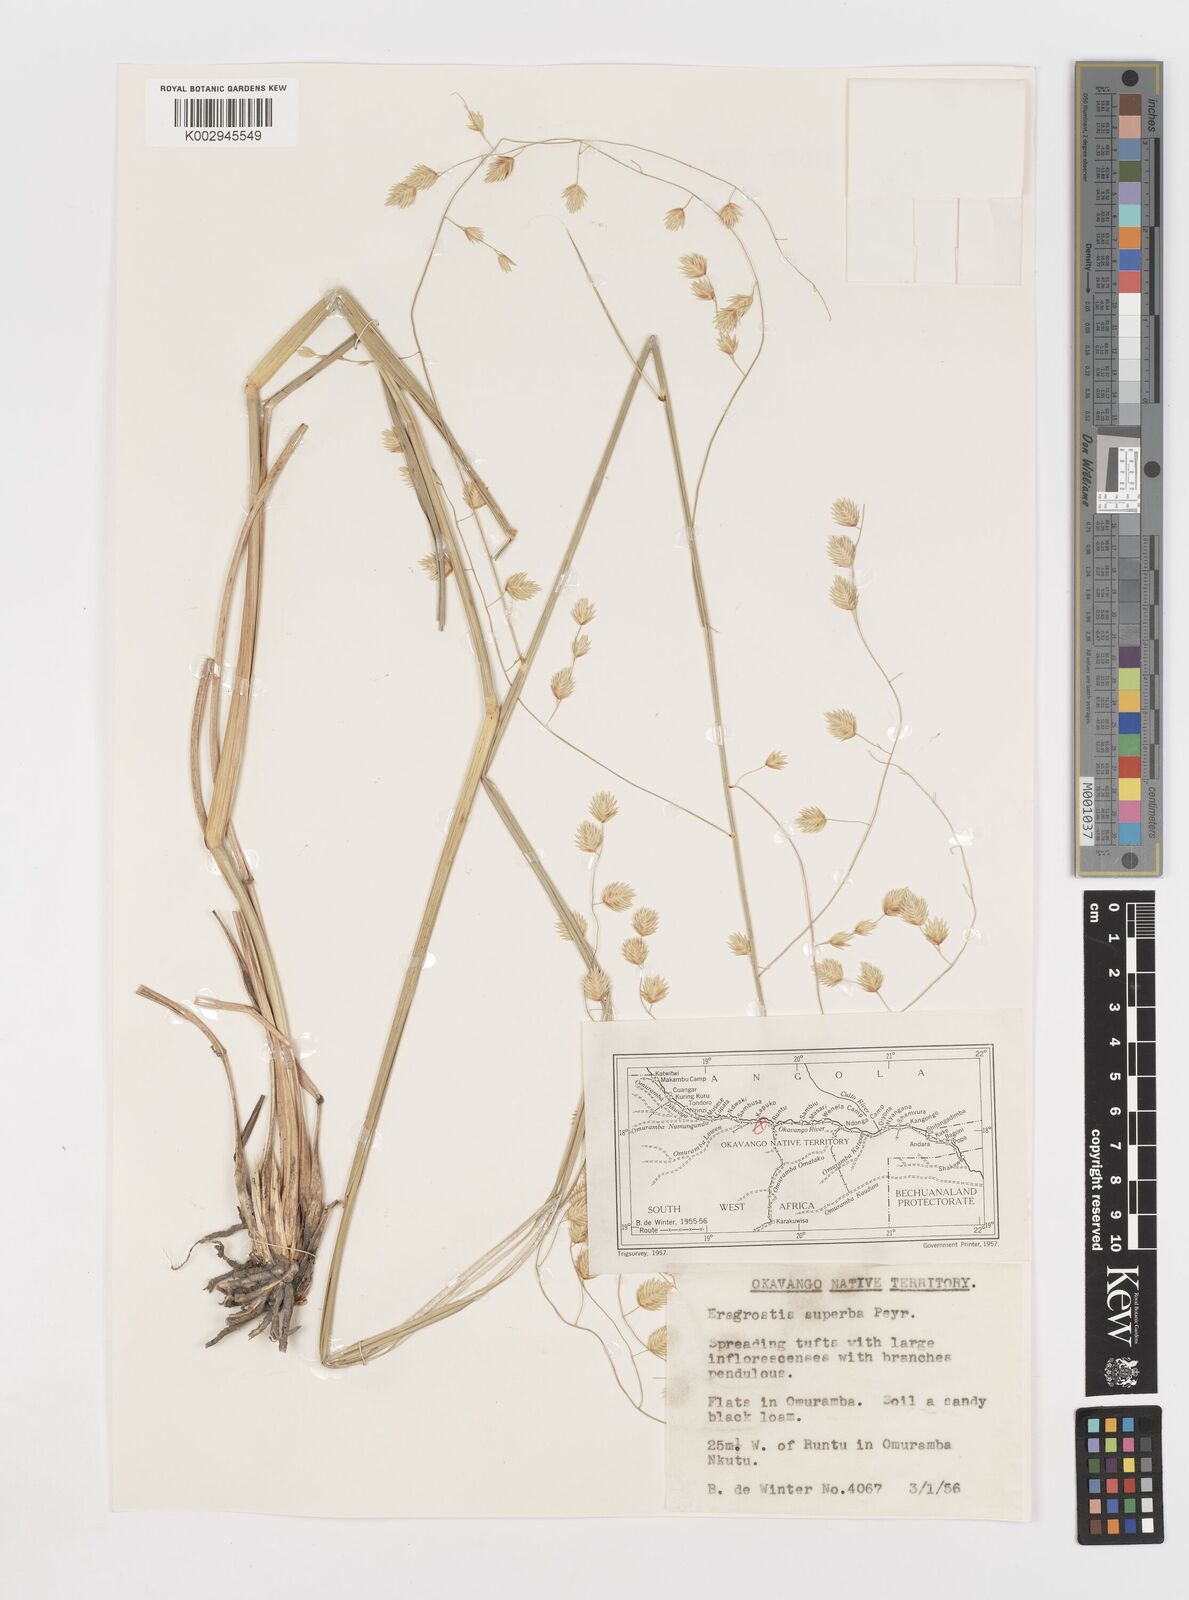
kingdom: Plantae
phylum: Tracheophyta
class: Liliopsida
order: Poales
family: Poaceae
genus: Eragrostis
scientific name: Eragrostis superba
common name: Wilman lovegrass
